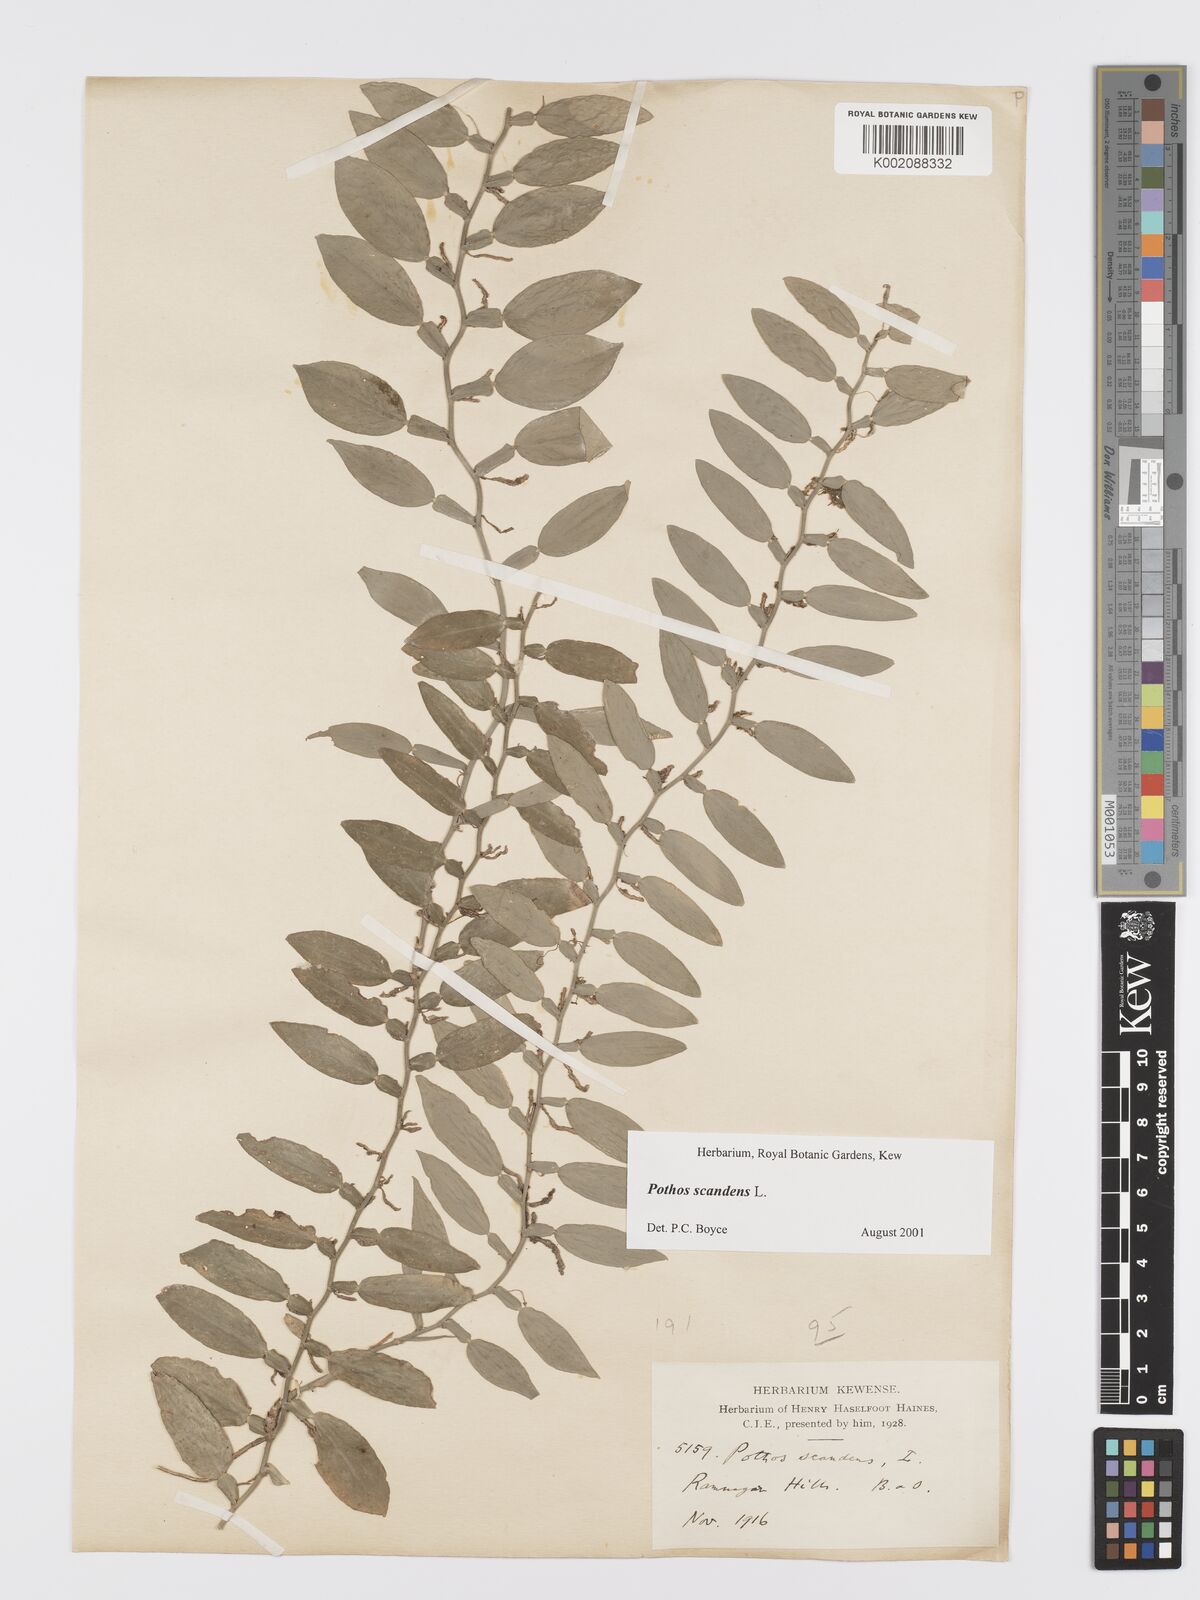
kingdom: Plantae
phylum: Tracheophyta
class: Liliopsida
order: Alismatales
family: Araceae
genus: Pothos
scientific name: Pothos scandens
